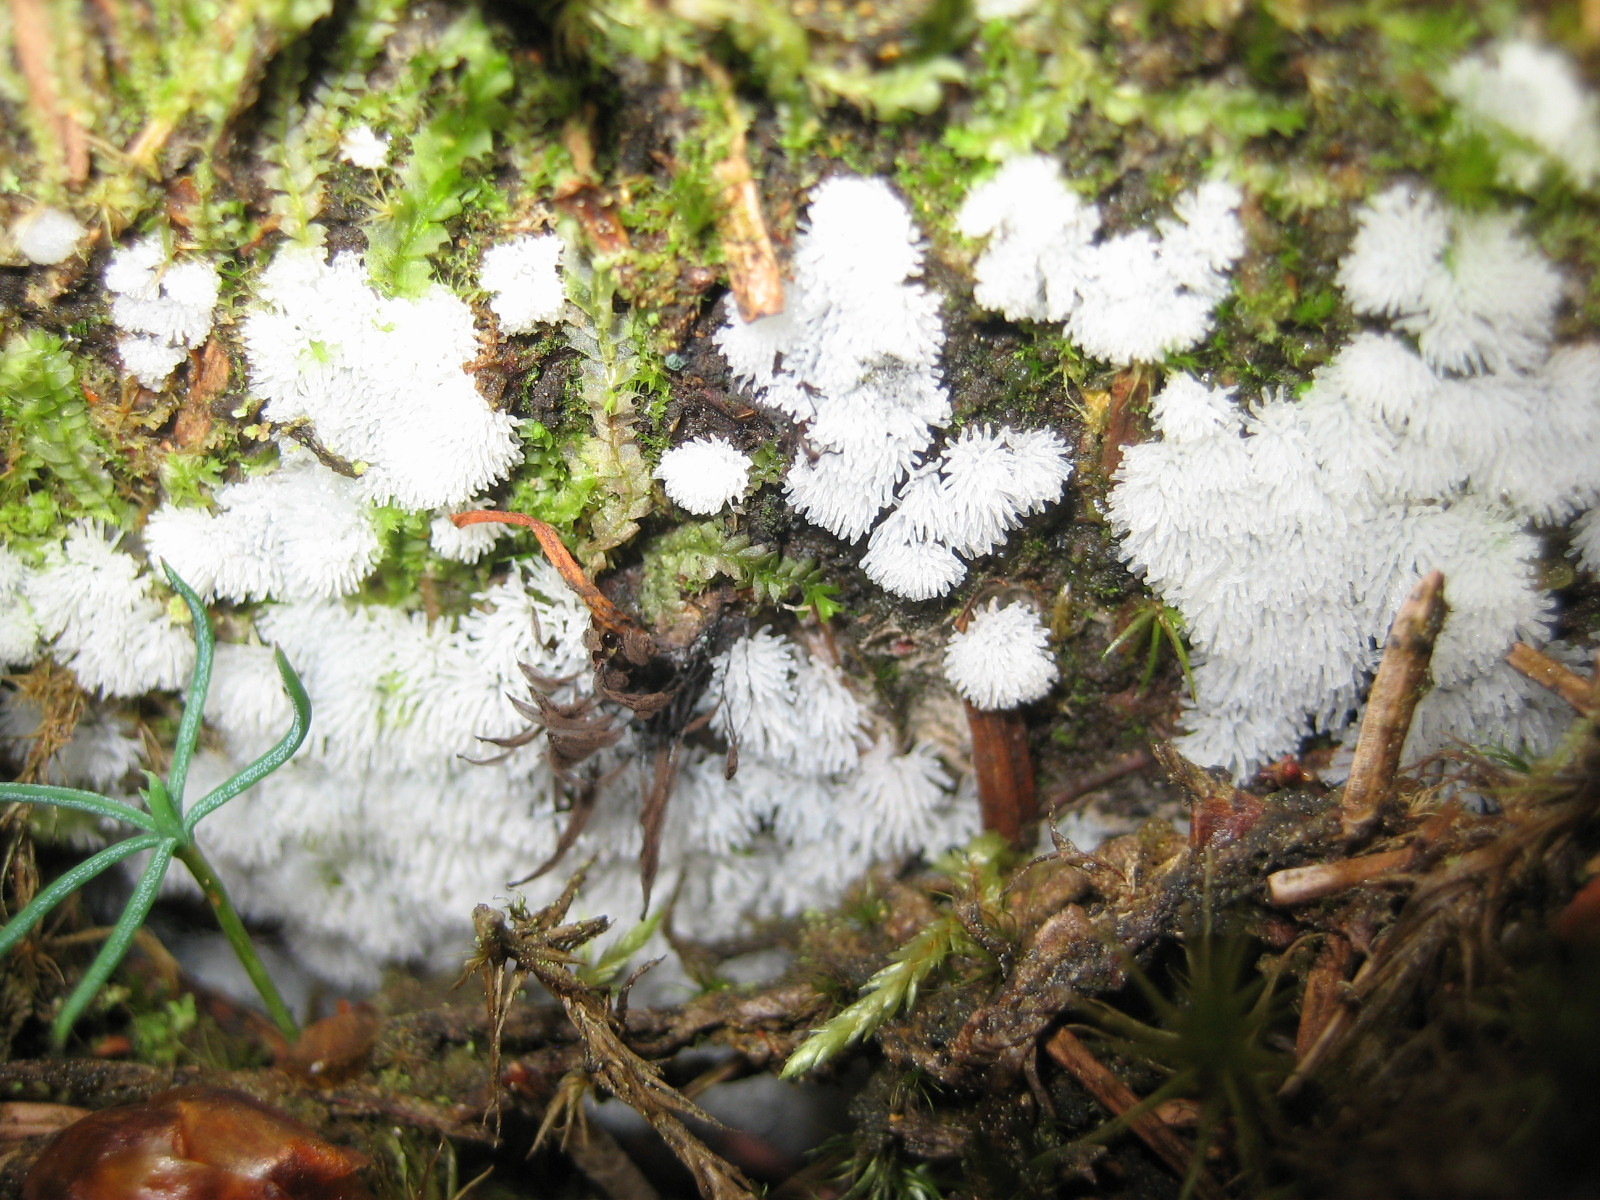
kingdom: Protozoa
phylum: Mycetozoa
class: Protosteliomycetes
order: Ceratiomyxales
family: Ceratiomyxaceae
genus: Ceratiomyxa
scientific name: Ceratiomyxa fruticulosa
